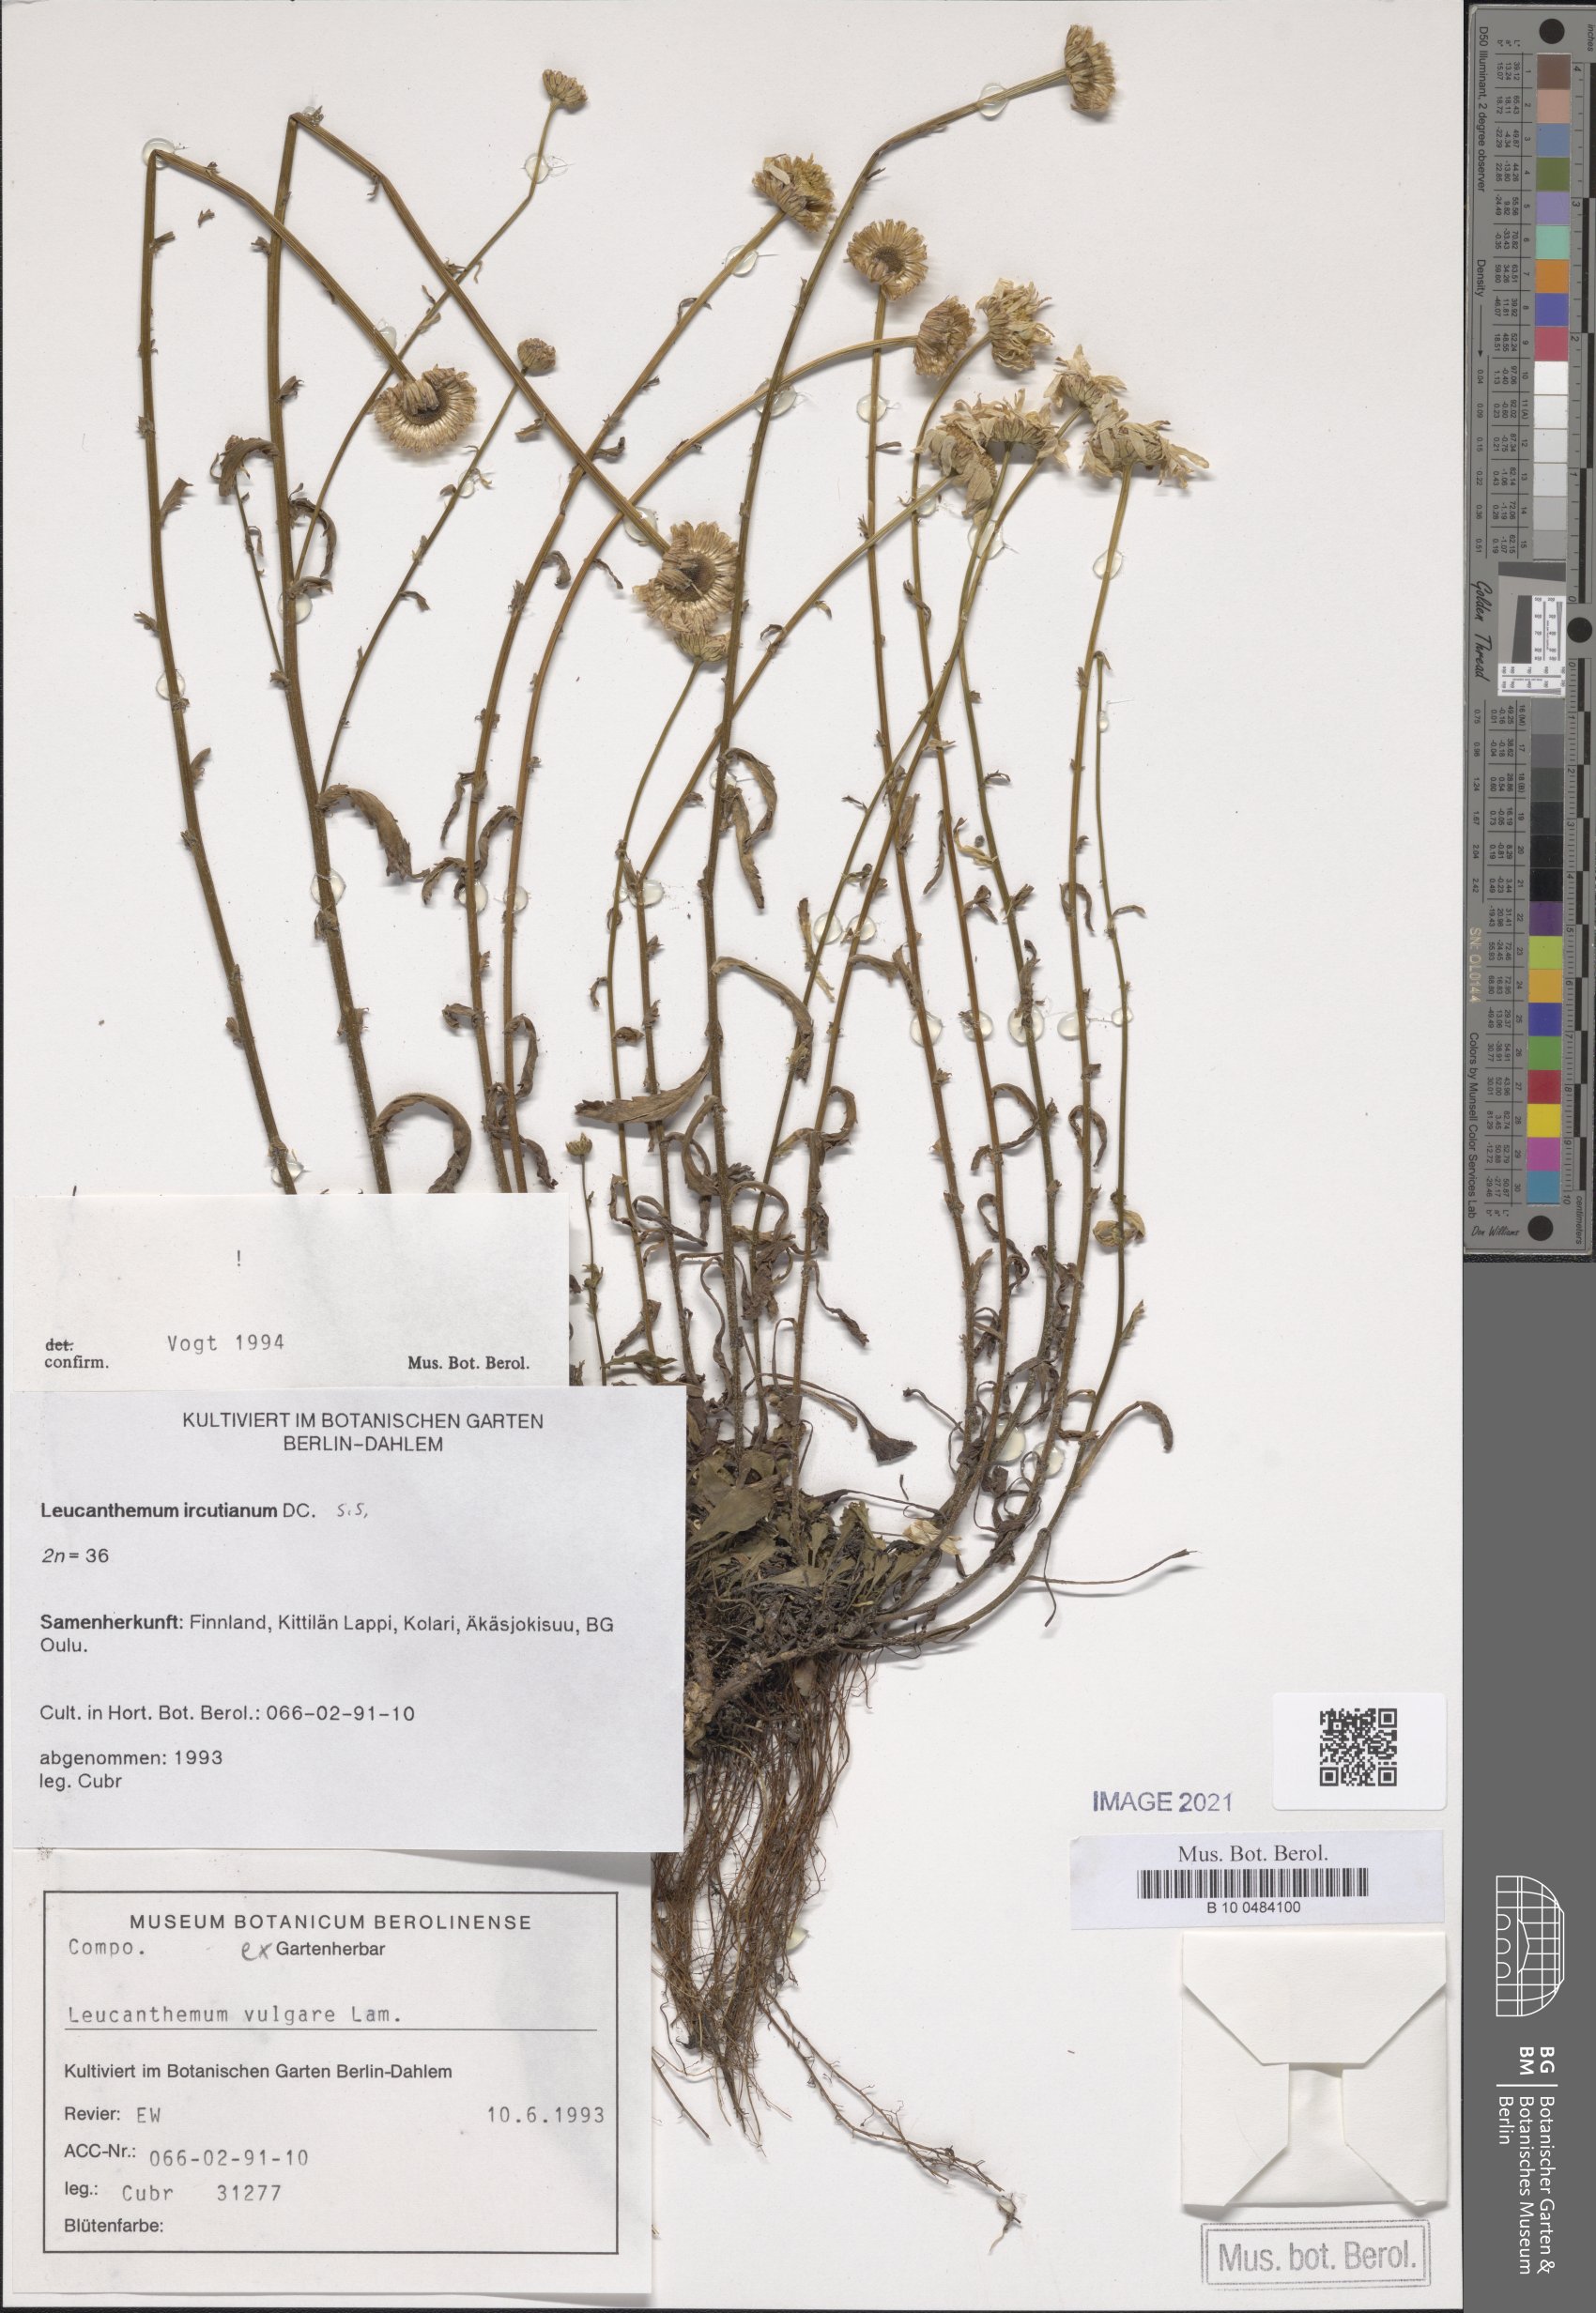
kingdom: Plantae
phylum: Tracheophyta
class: Magnoliopsida
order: Asterales
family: Asteraceae
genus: Leucanthemum
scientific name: Leucanthemum ircutianum
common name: Daisy
